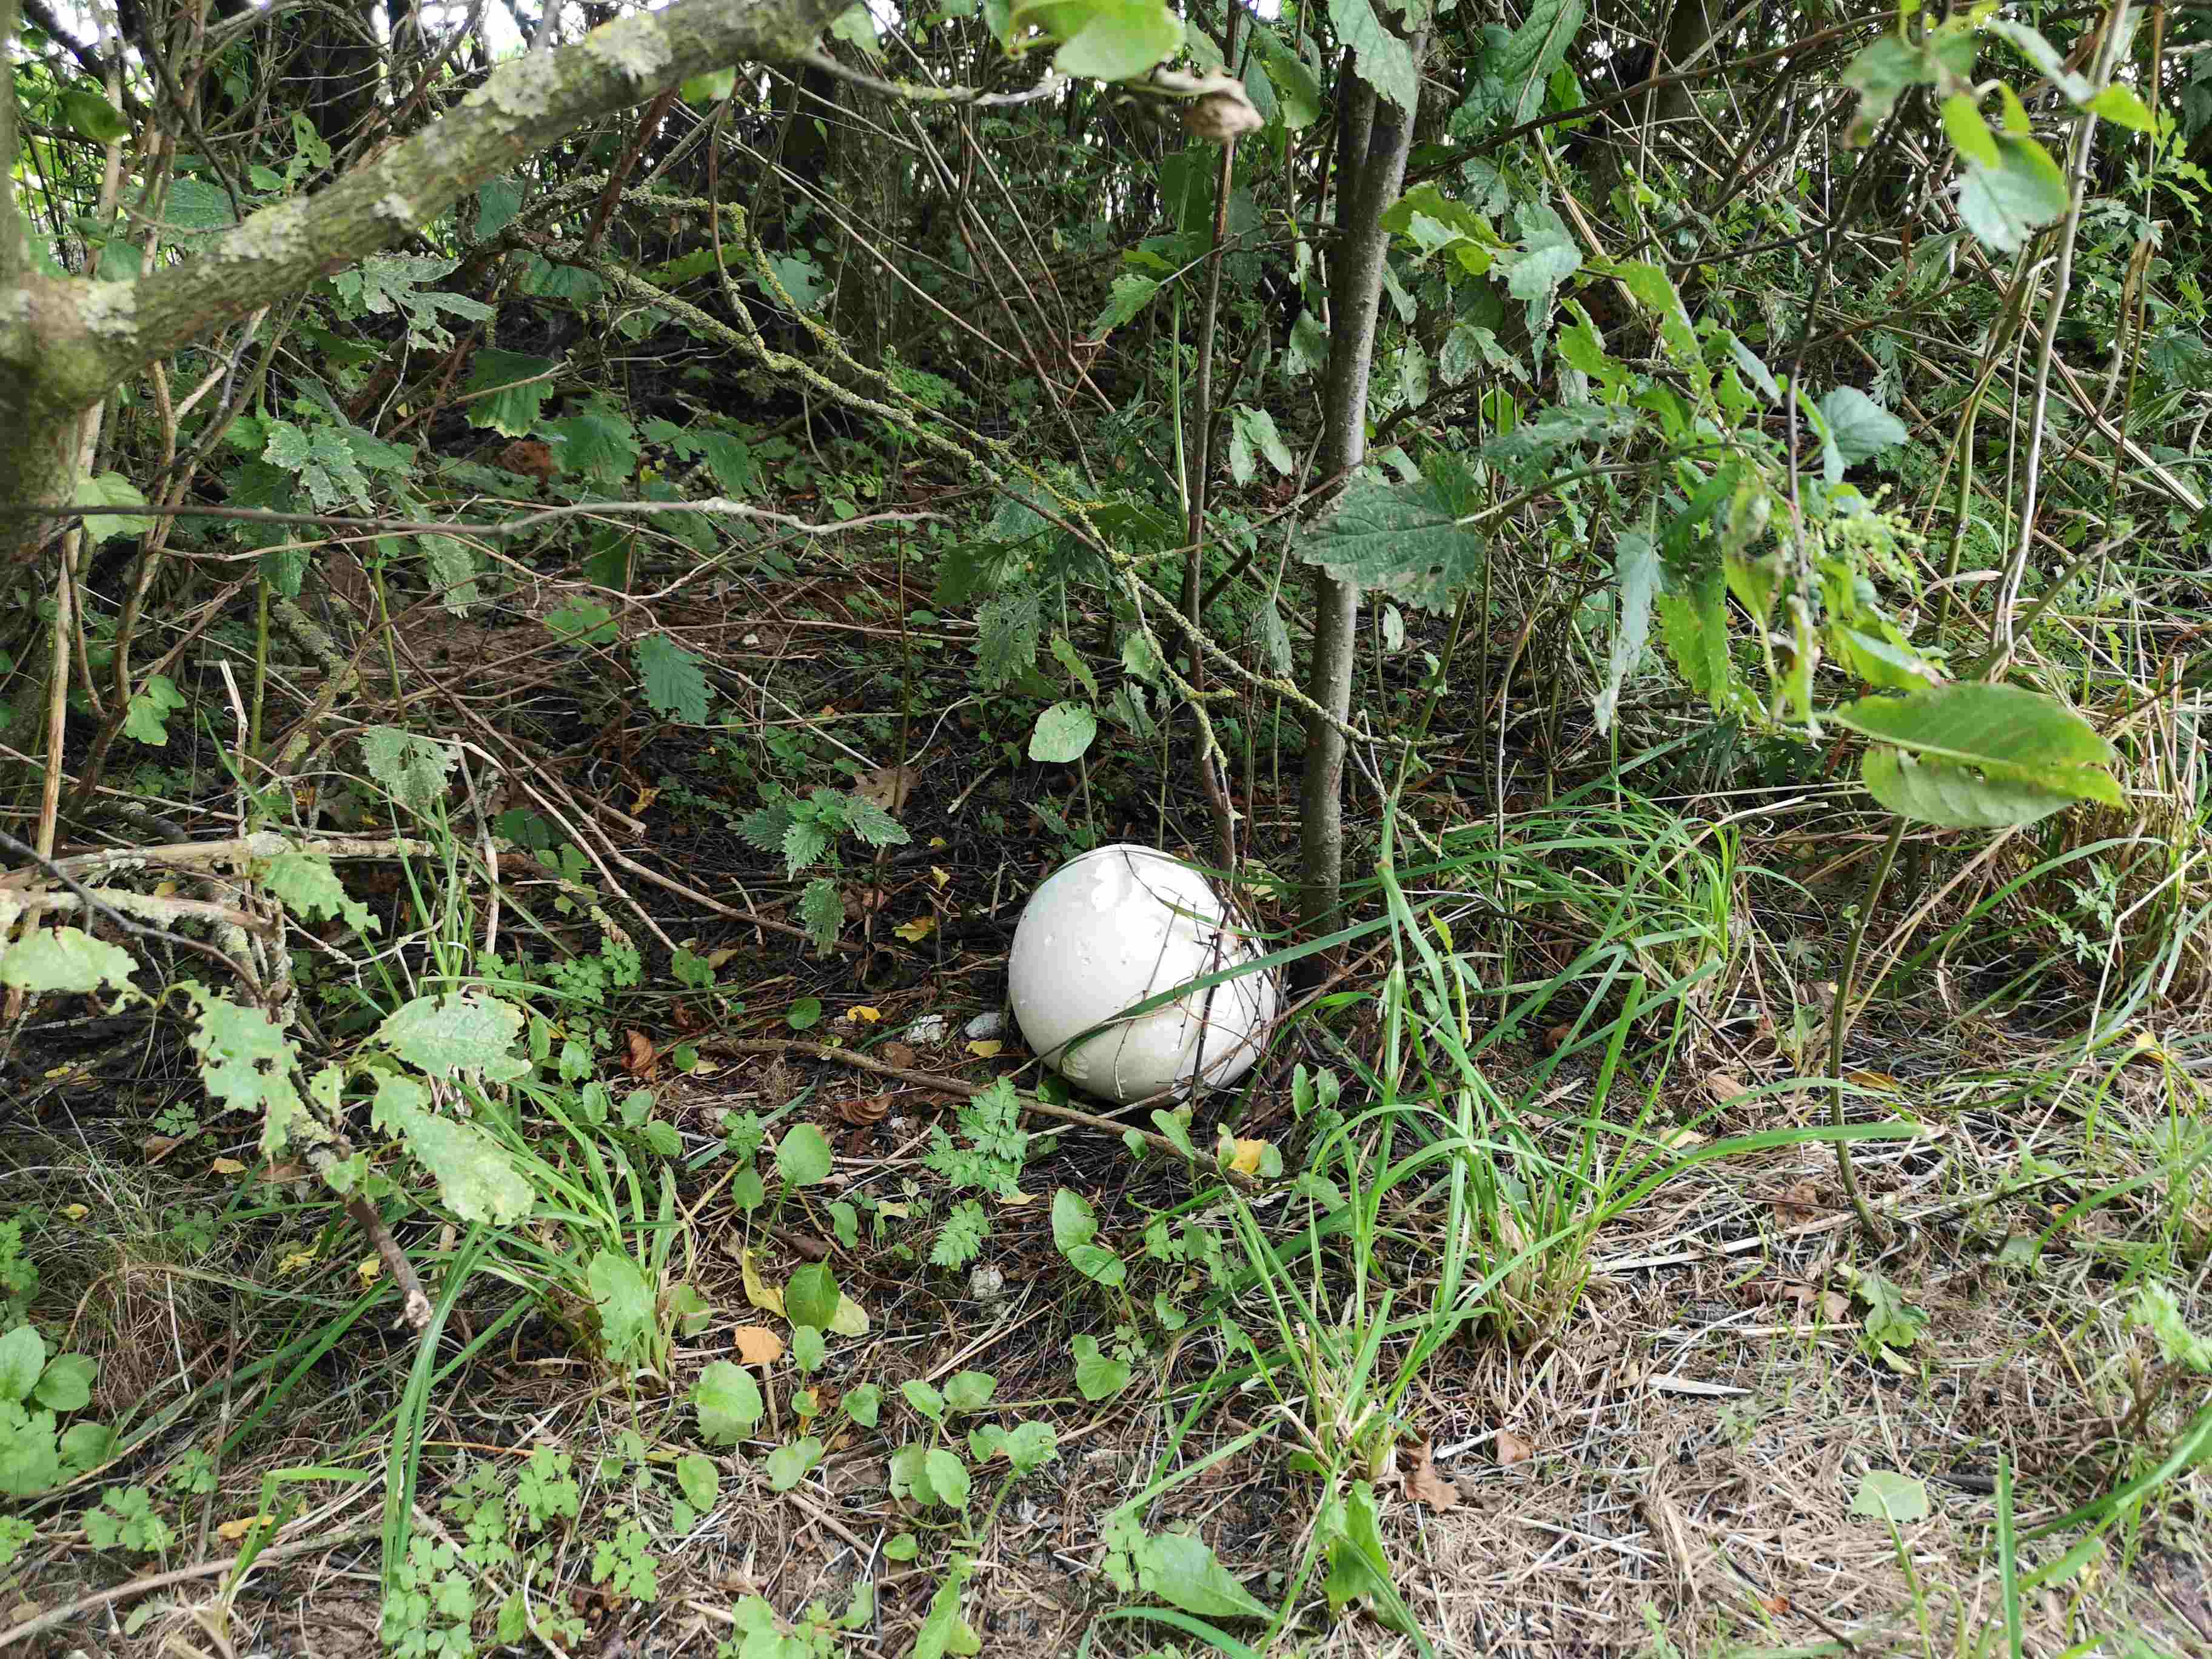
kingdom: Fungi
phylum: Basidiomycota
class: Agaricomycetes
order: Agaricales
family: Lycoperdaceae
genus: Calvatia
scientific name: Calvatia gigantea
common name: kæmpestøvbold
